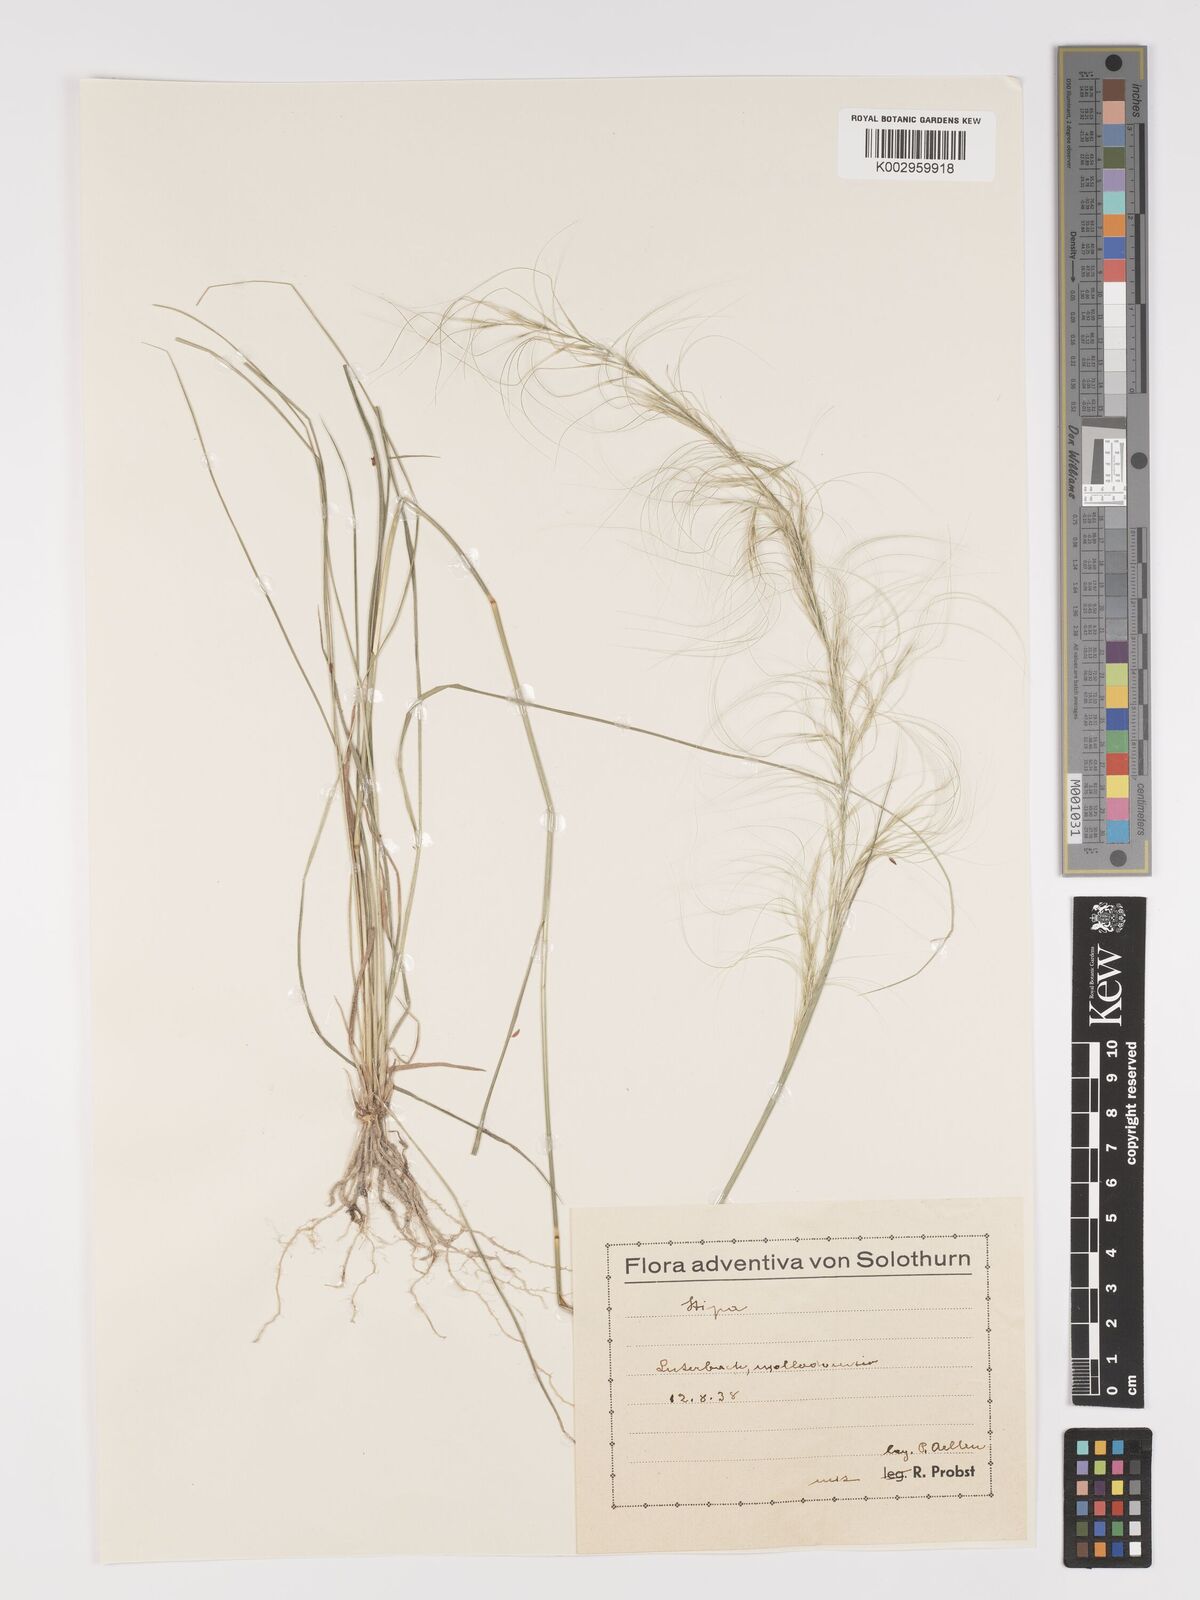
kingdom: Plantae
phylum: Tracheophyta
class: Liliopsida
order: Poales
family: Poaceae
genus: Stipa
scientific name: Stipa
